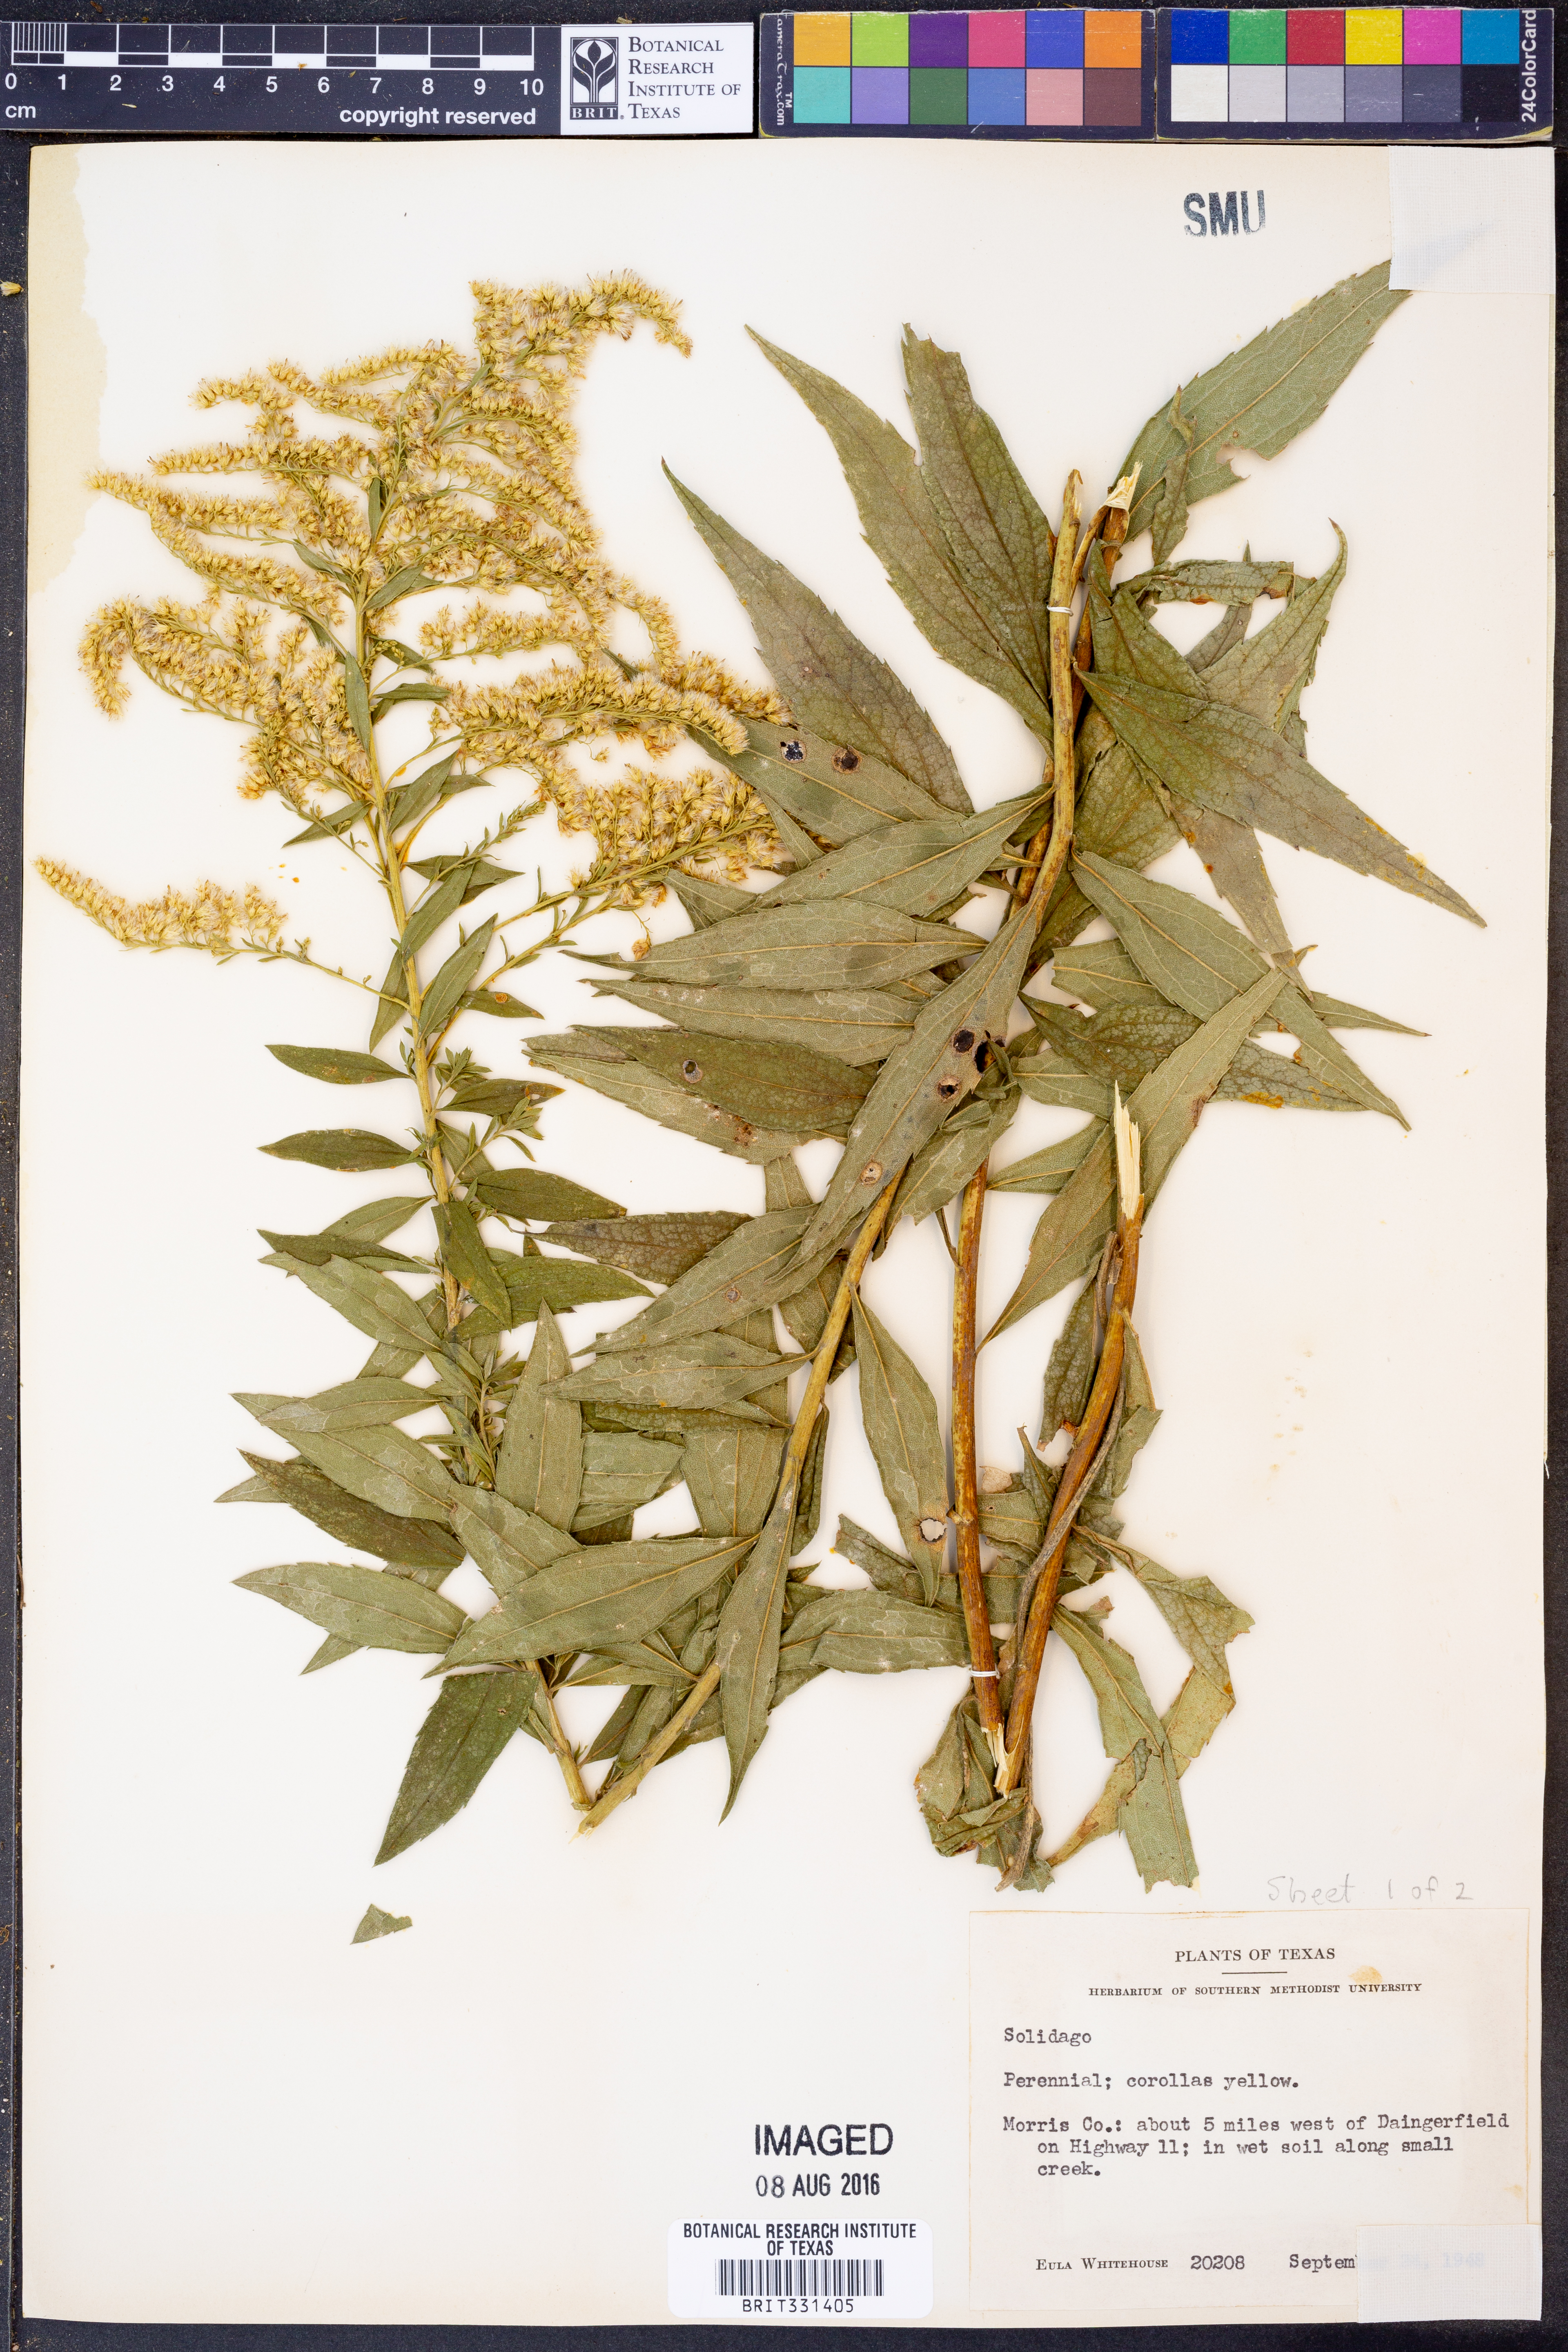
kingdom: Plantae
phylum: Tracheophyta
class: Magnoliopsida
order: Asterales
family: Asteraceae
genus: Solidago
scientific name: Solidago
